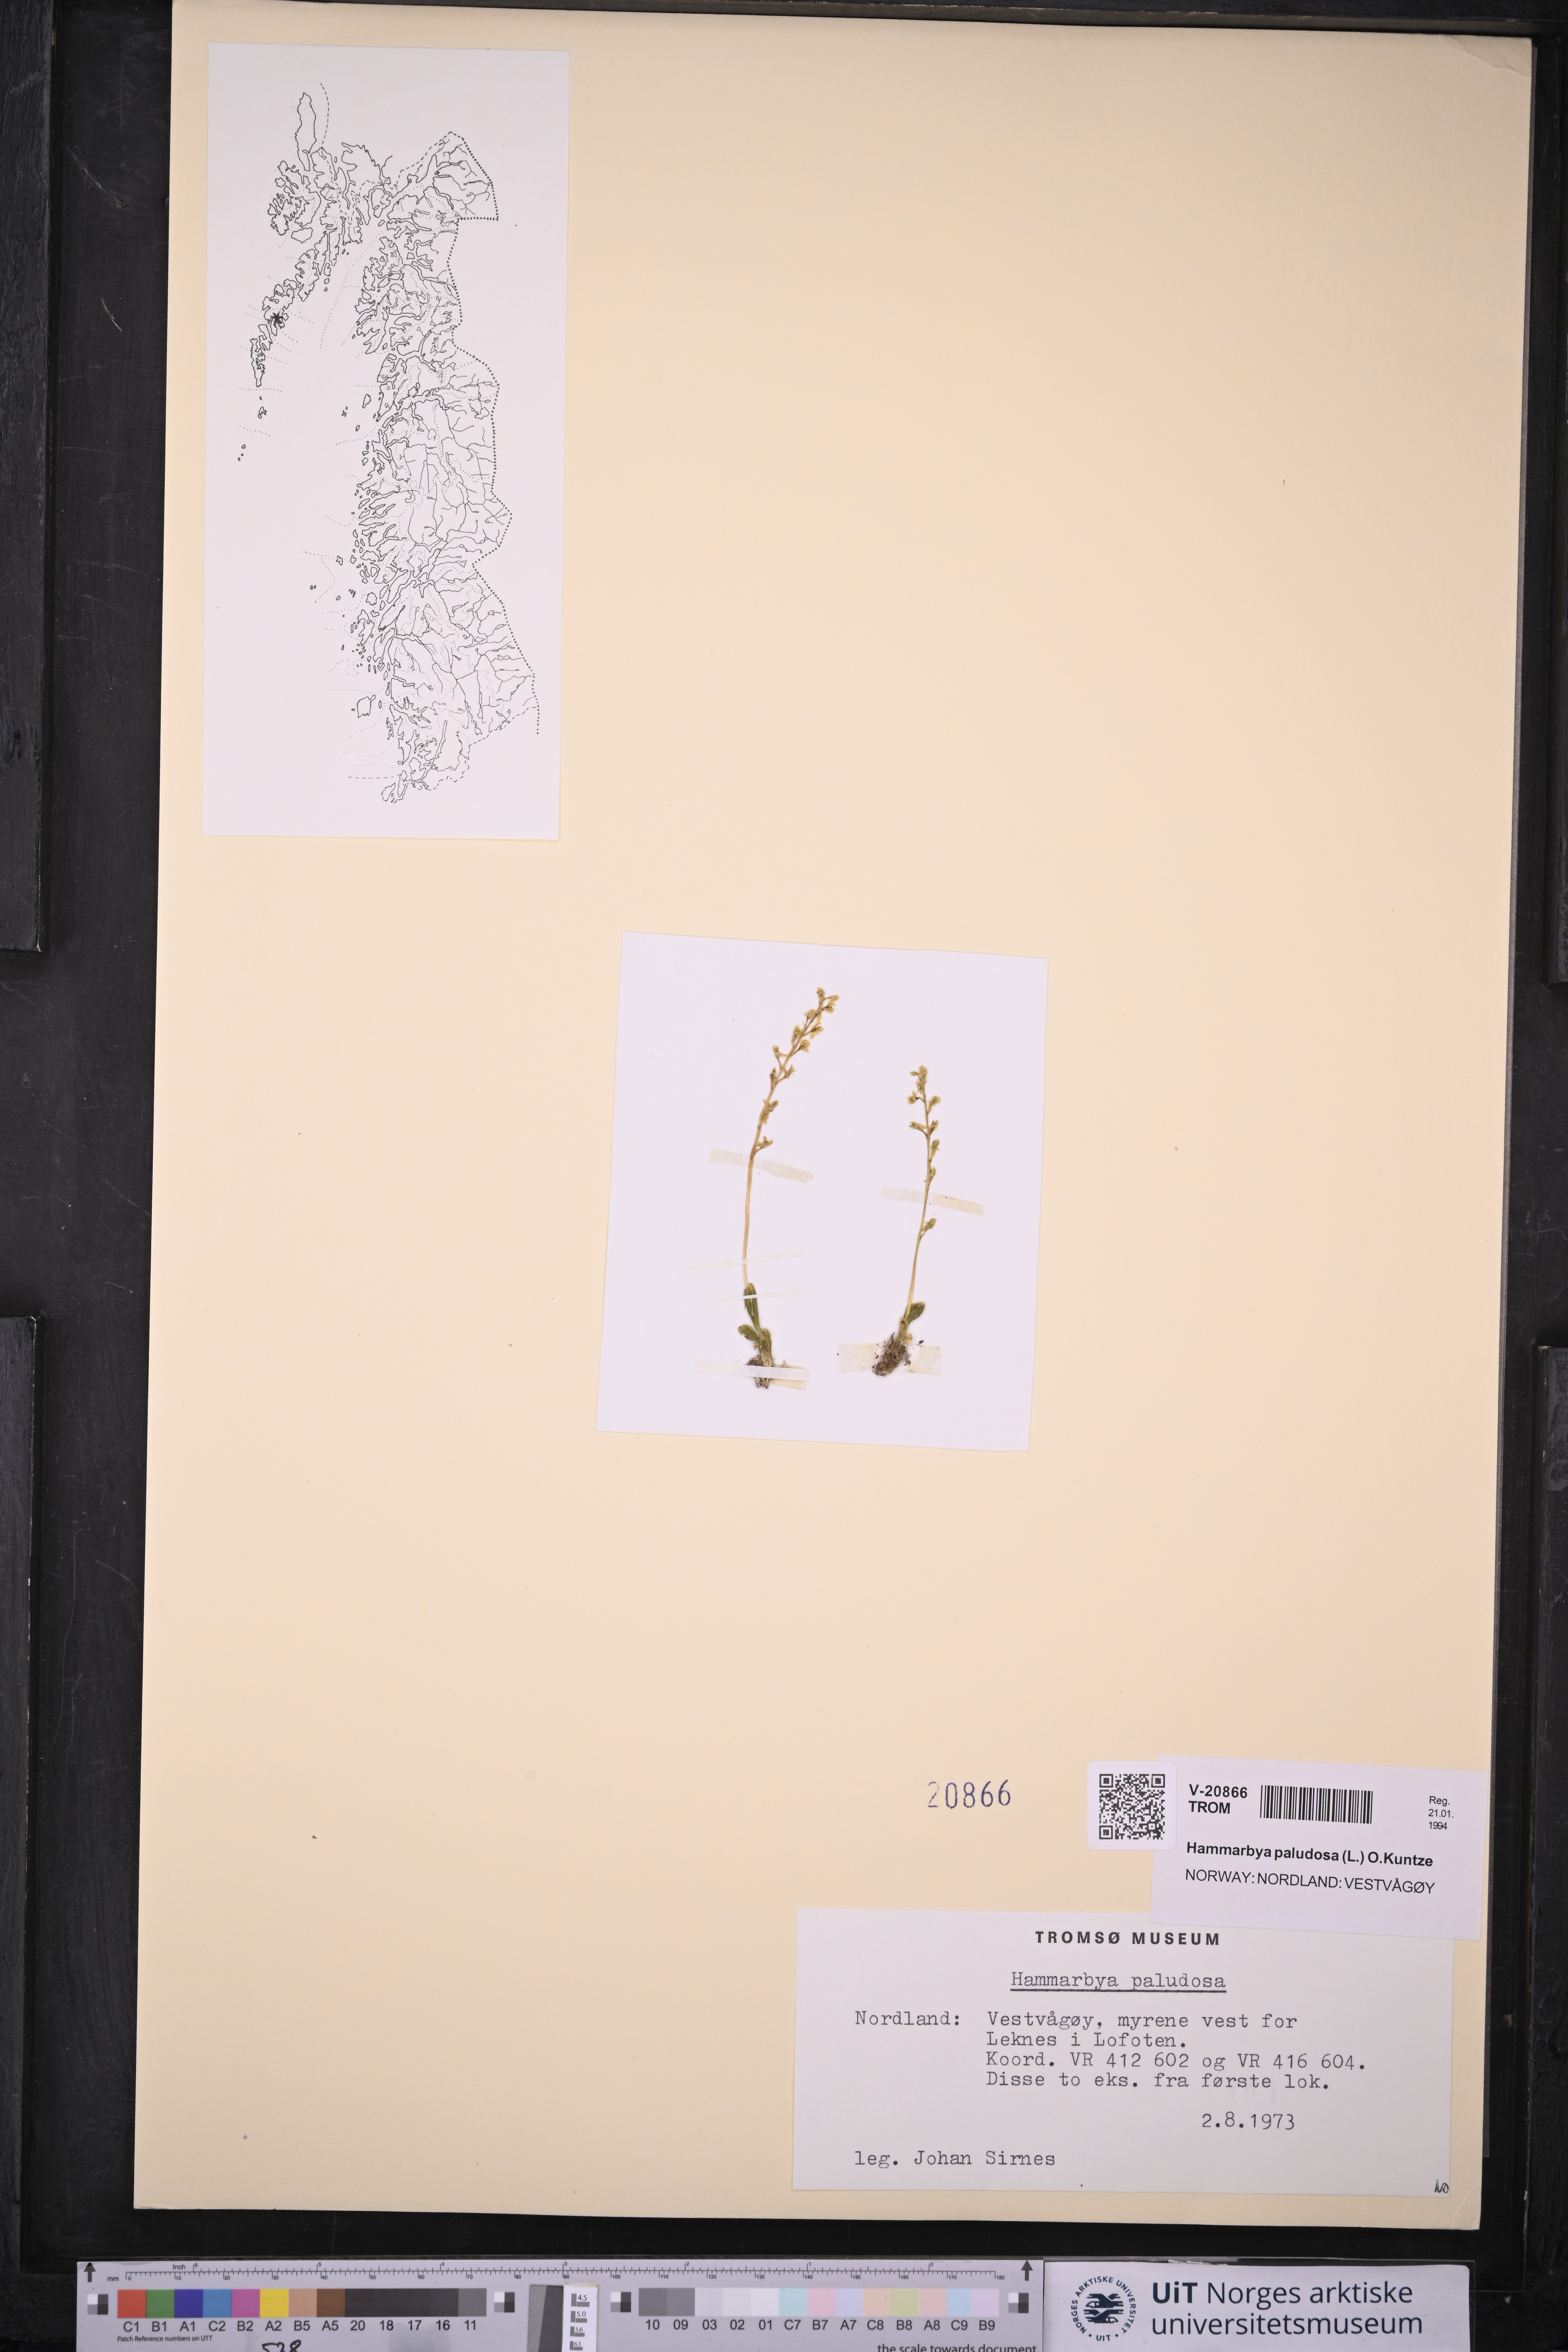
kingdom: Plantae
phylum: Tracheophyta
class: Liliopsida
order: Asparagales
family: Orchidaceae
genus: Hammarbya
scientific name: Hammarbya paludosa
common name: Bog orchid
